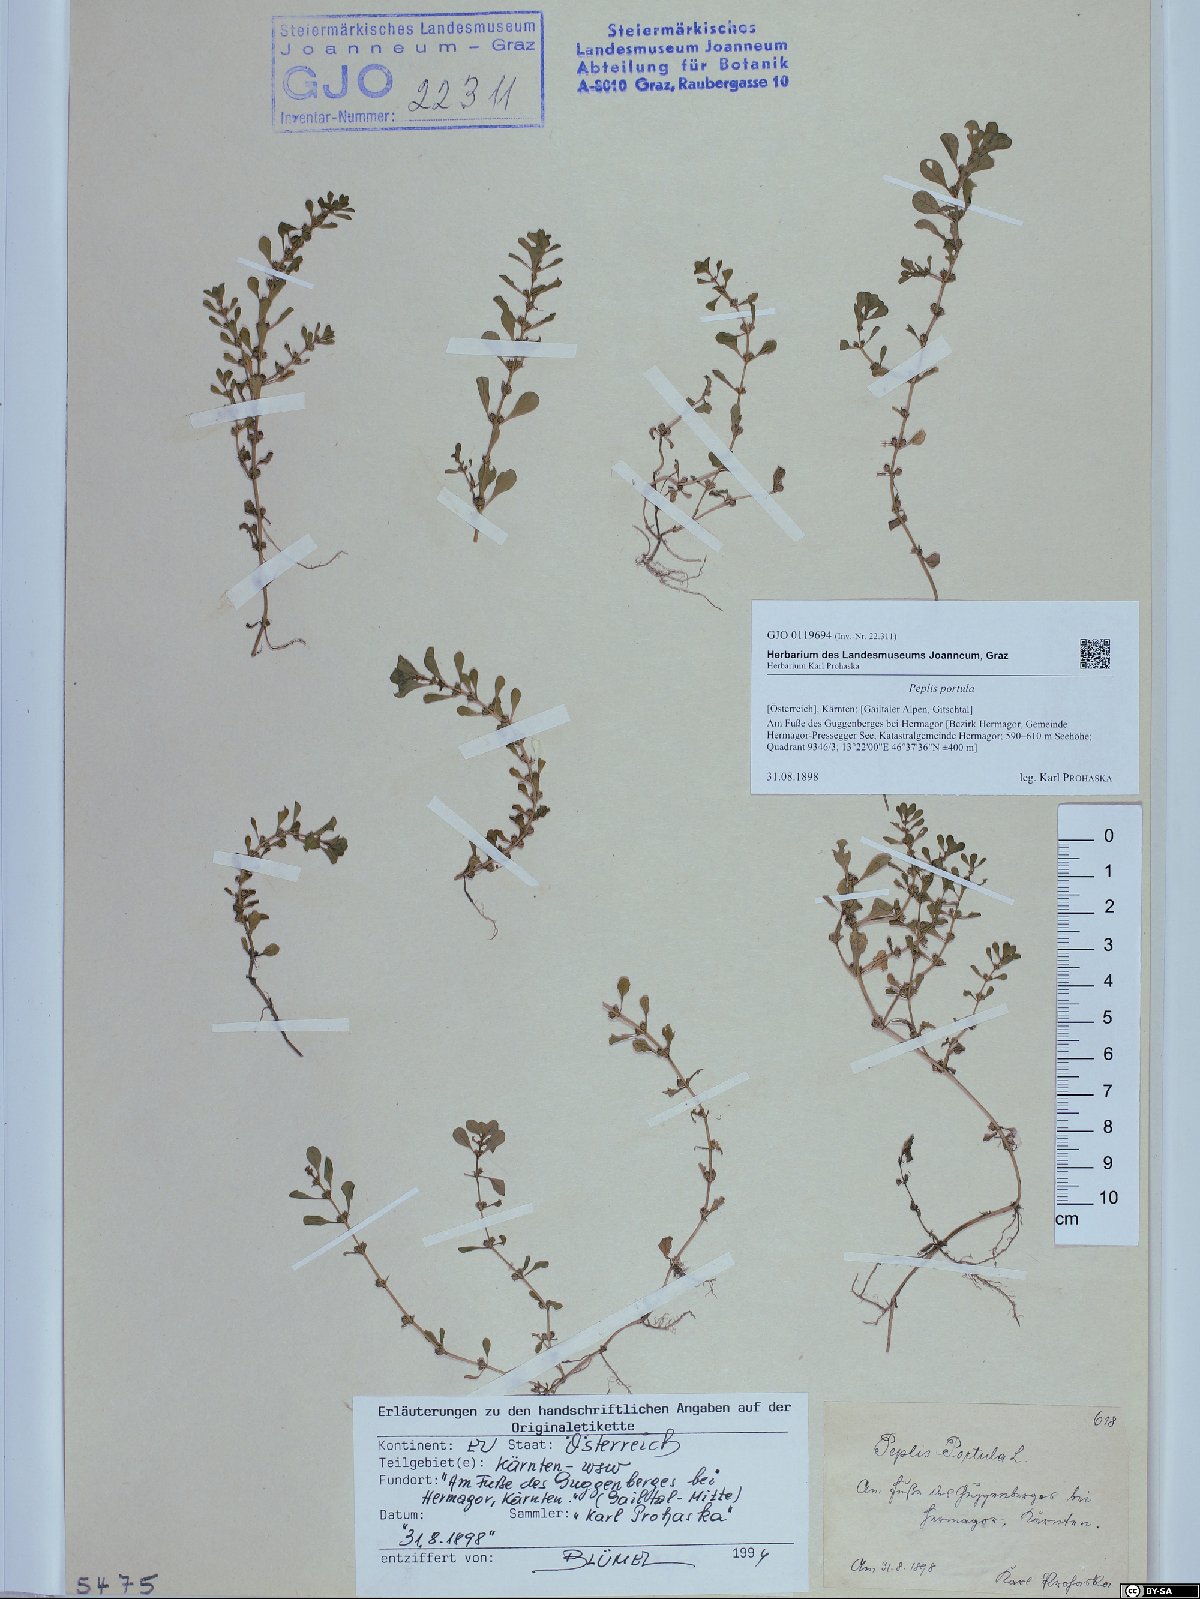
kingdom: Plantae
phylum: Tracheophyta
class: Magnoliopsida
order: Myrtales
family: Lythraceae
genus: Lythrum
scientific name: Lythrum portula
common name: Water purslane
